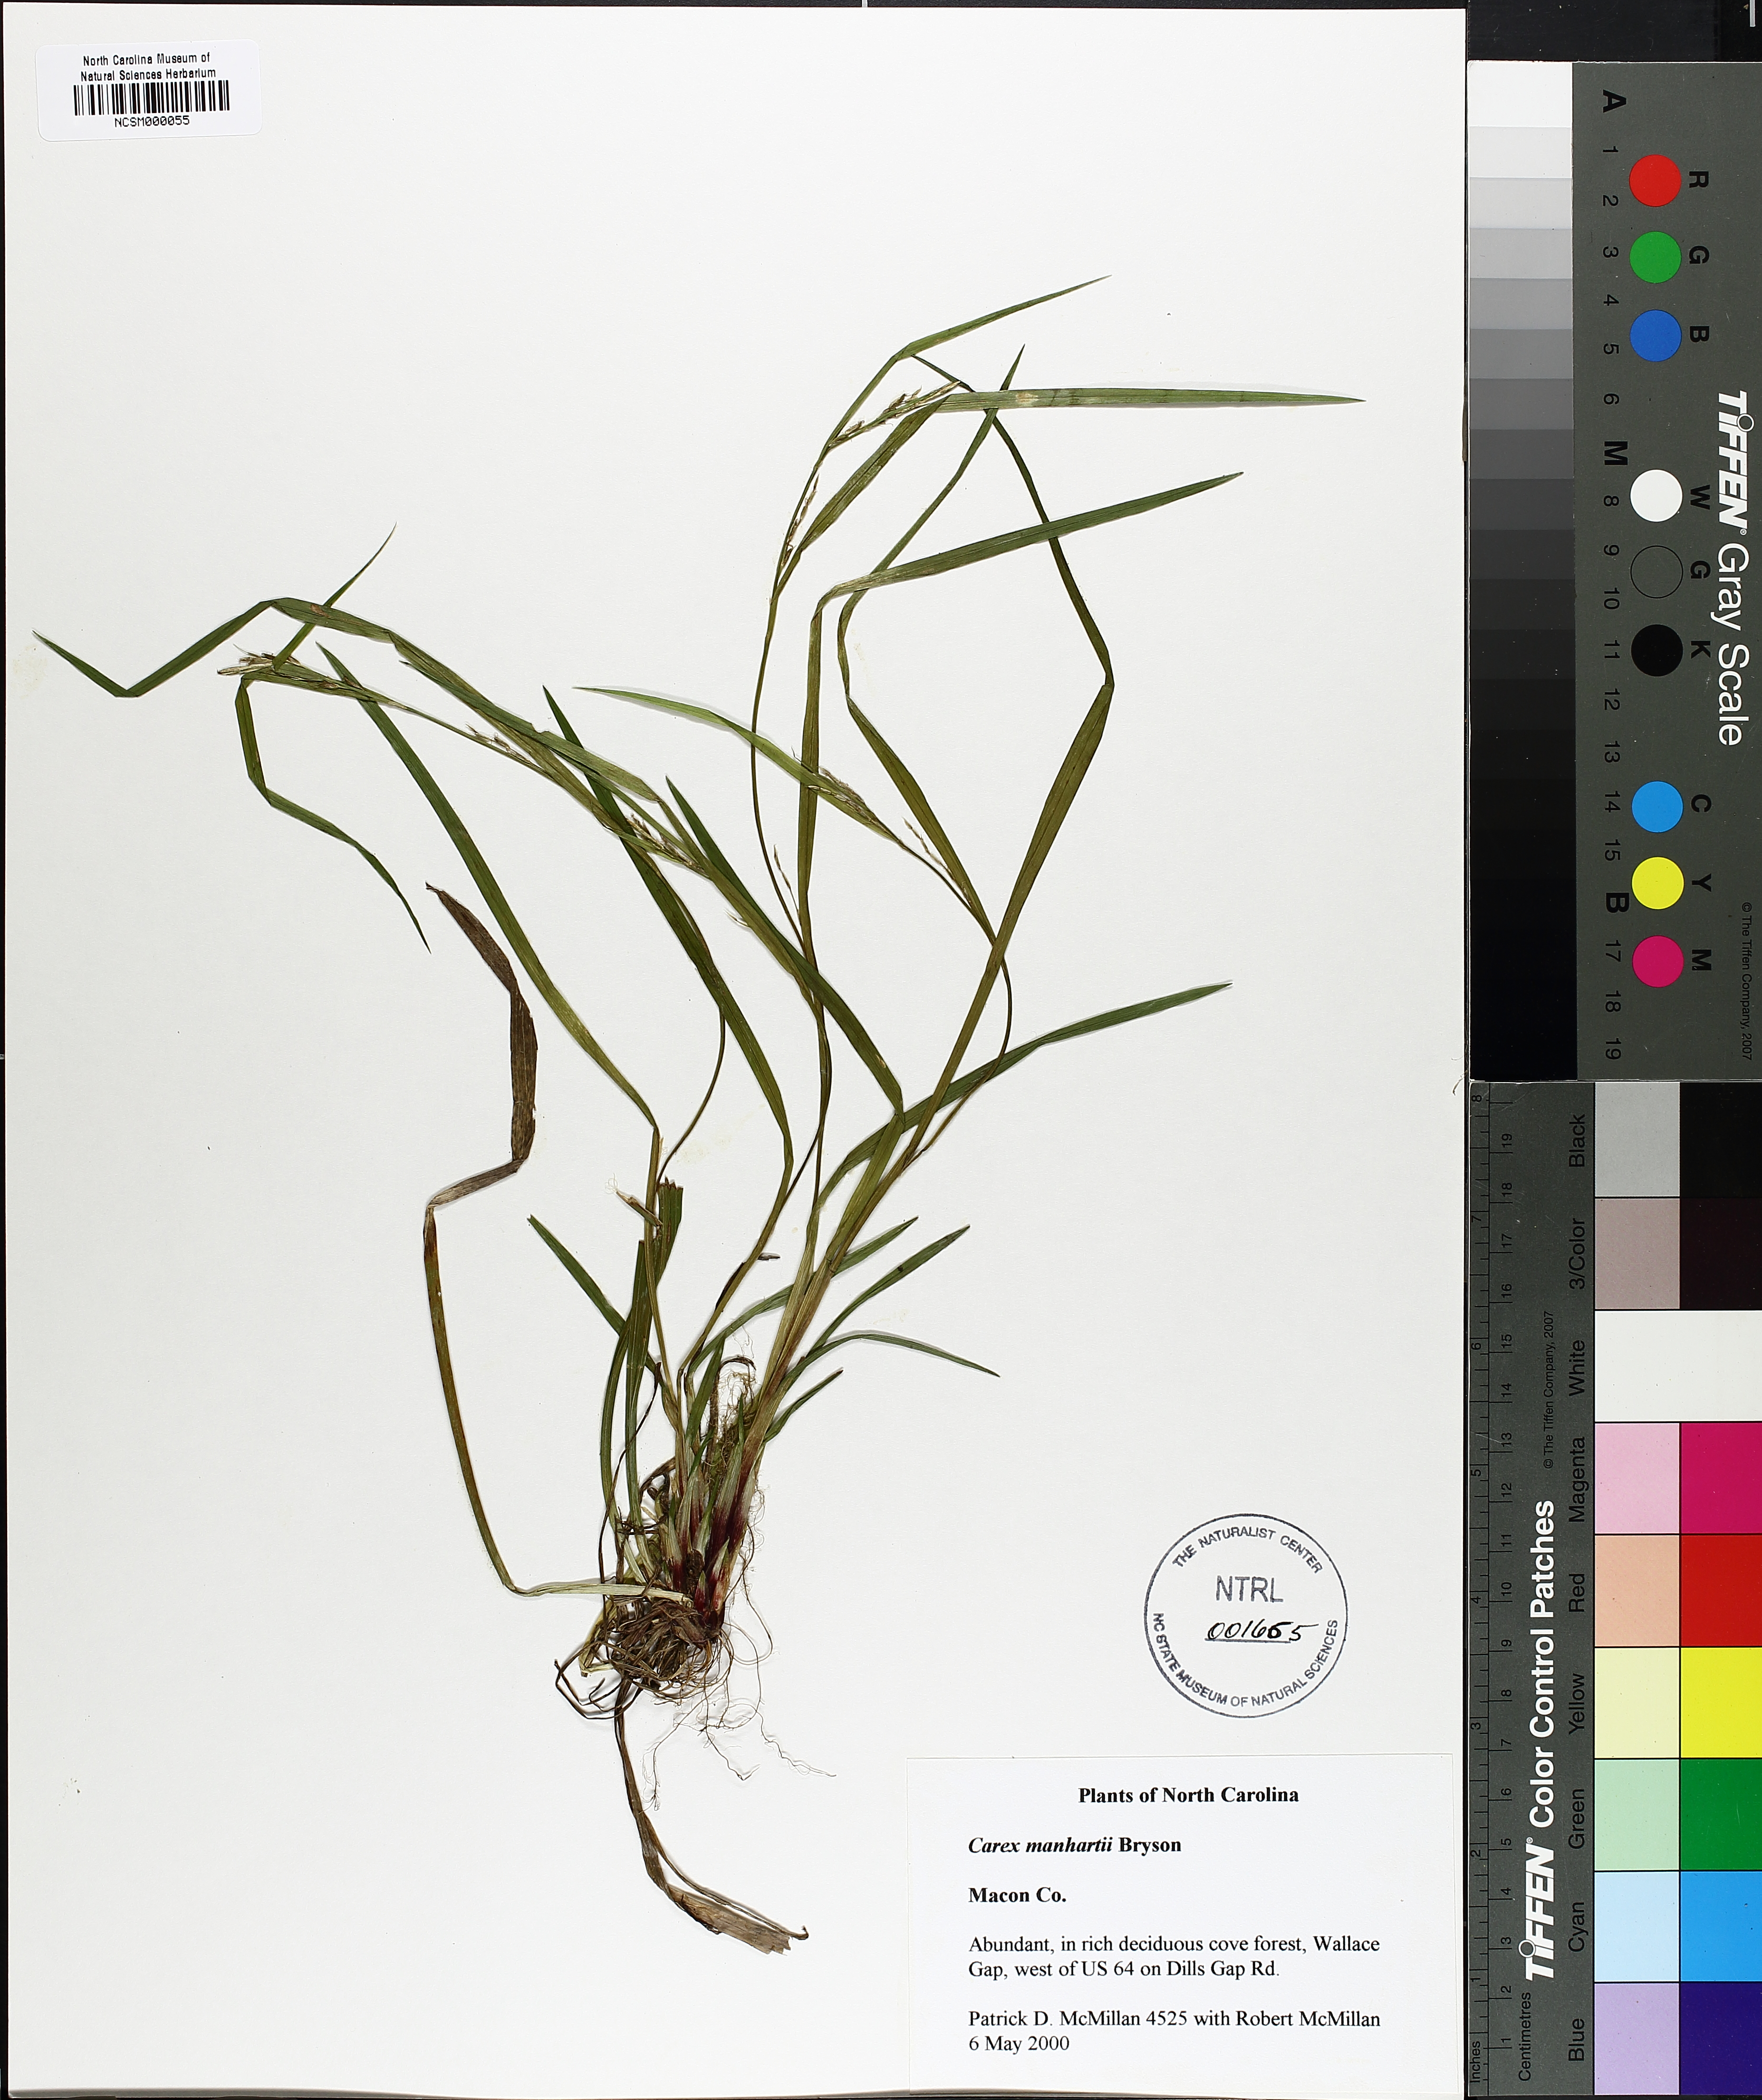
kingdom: Plantae
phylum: Tracheophyta
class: Liliopsida
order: Poales
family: Cyperaceae
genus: Carex
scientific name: Carex manhartii
